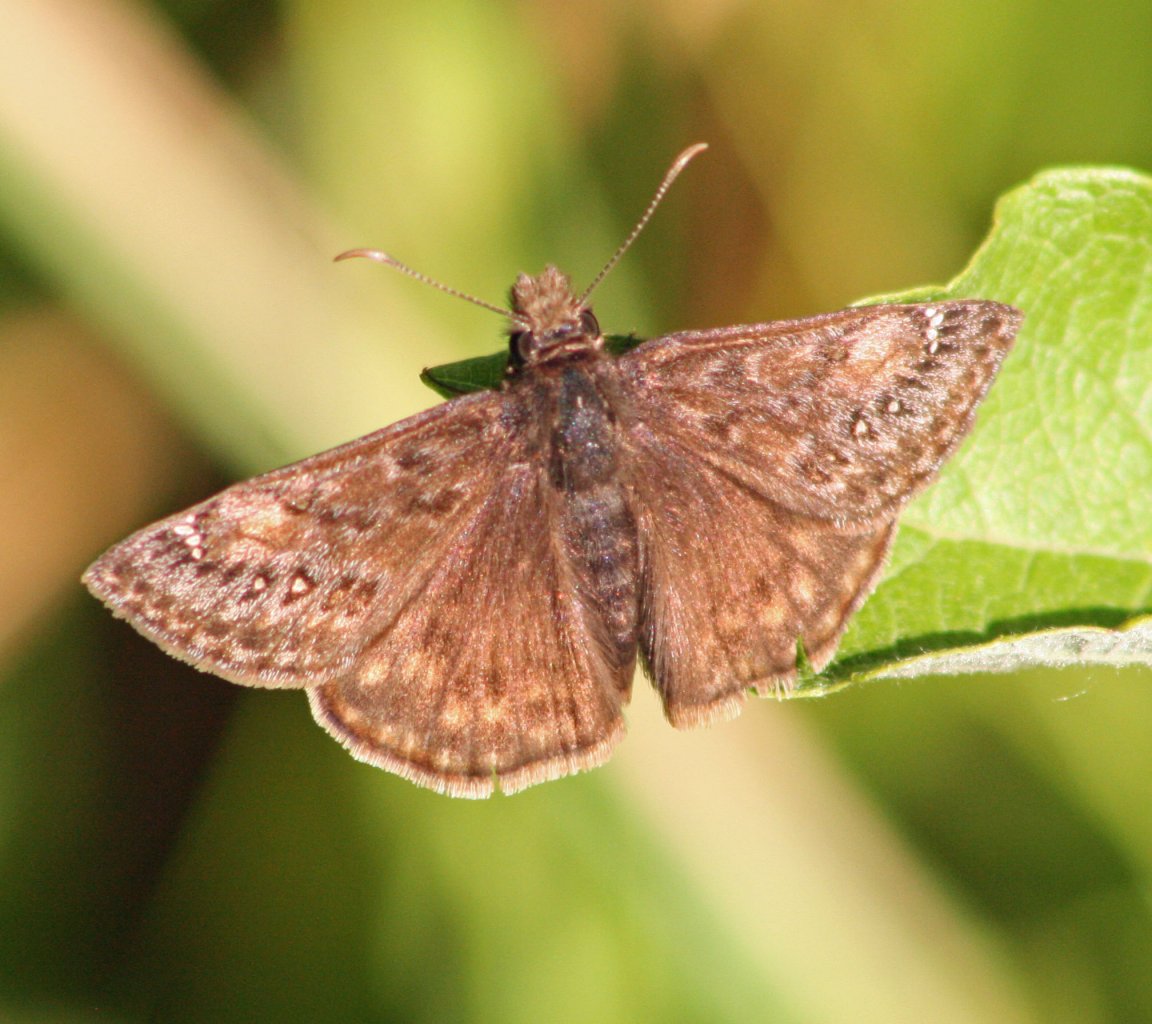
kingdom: Animalia
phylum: Arthropoda
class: Insecta
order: Lepidoptera
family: Hesperiidae
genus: Gesta
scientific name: Gesta
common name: Wild Indigo Duskywing
